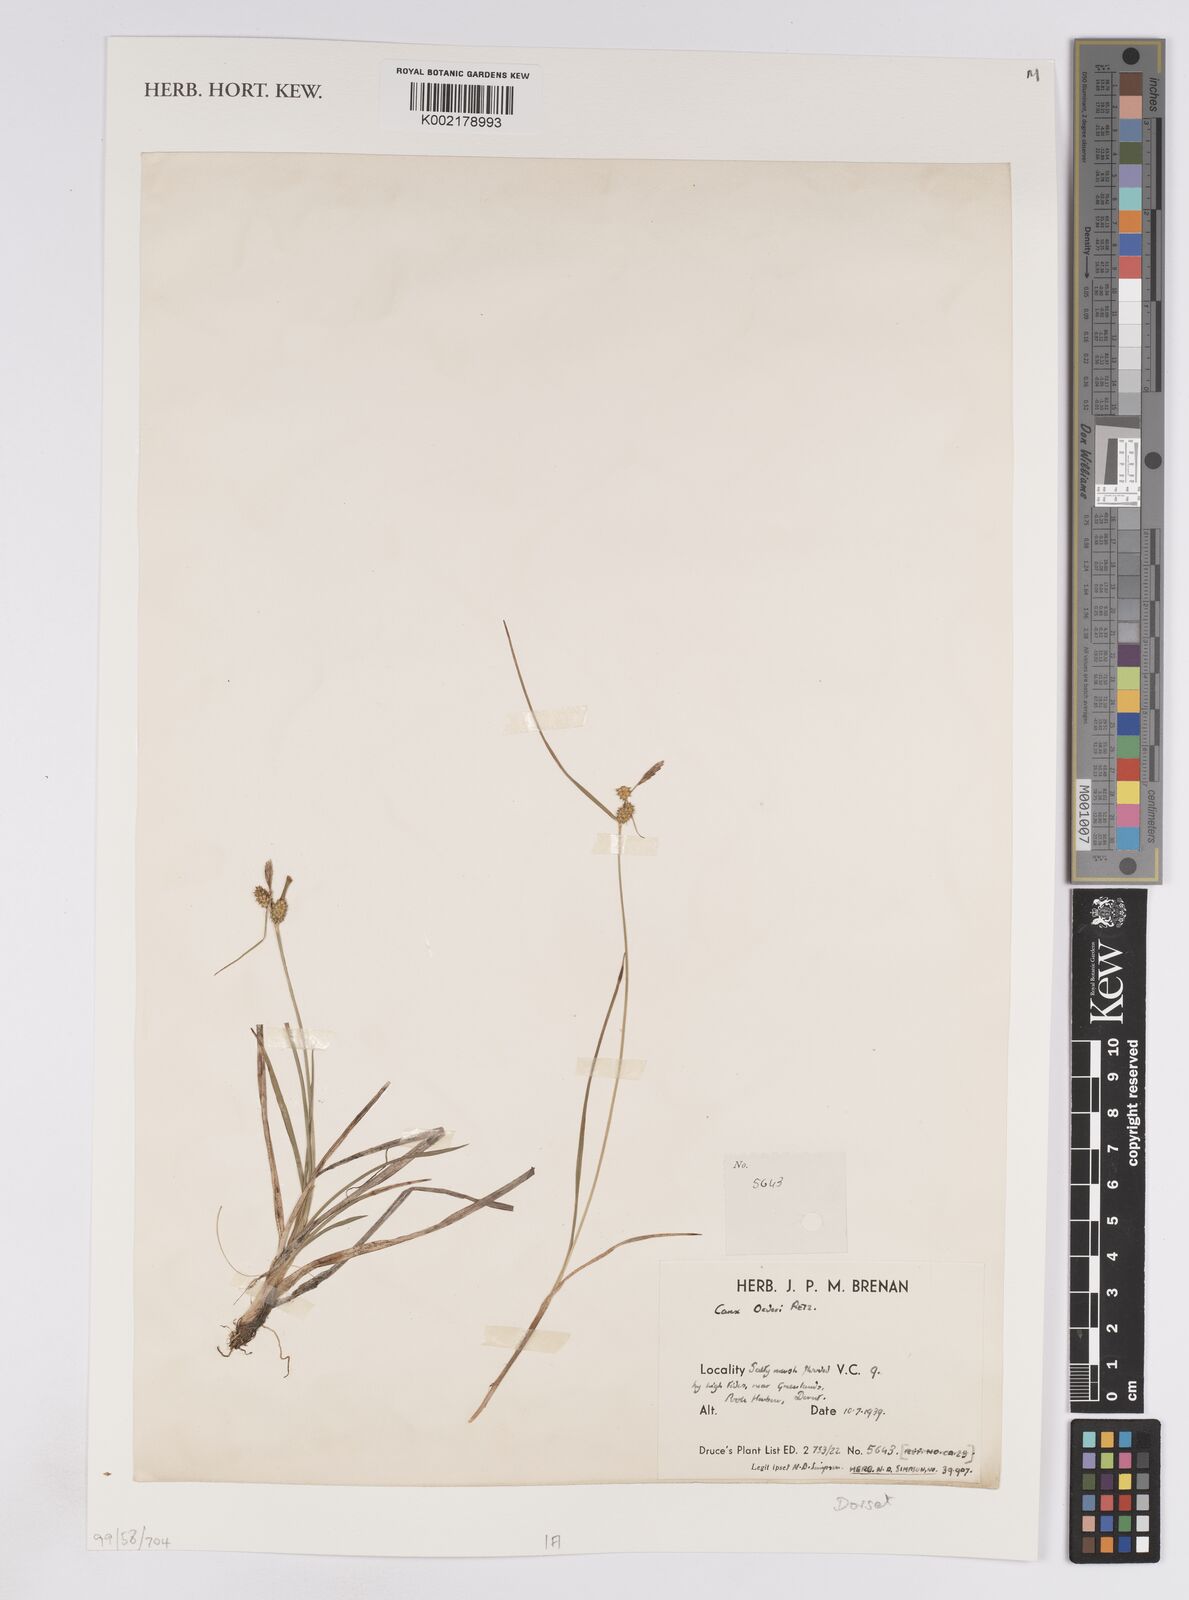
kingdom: Plantae
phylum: Tracheophyta
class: Liliopsida
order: Poales
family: Cyperaceae
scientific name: Cyperaceae
